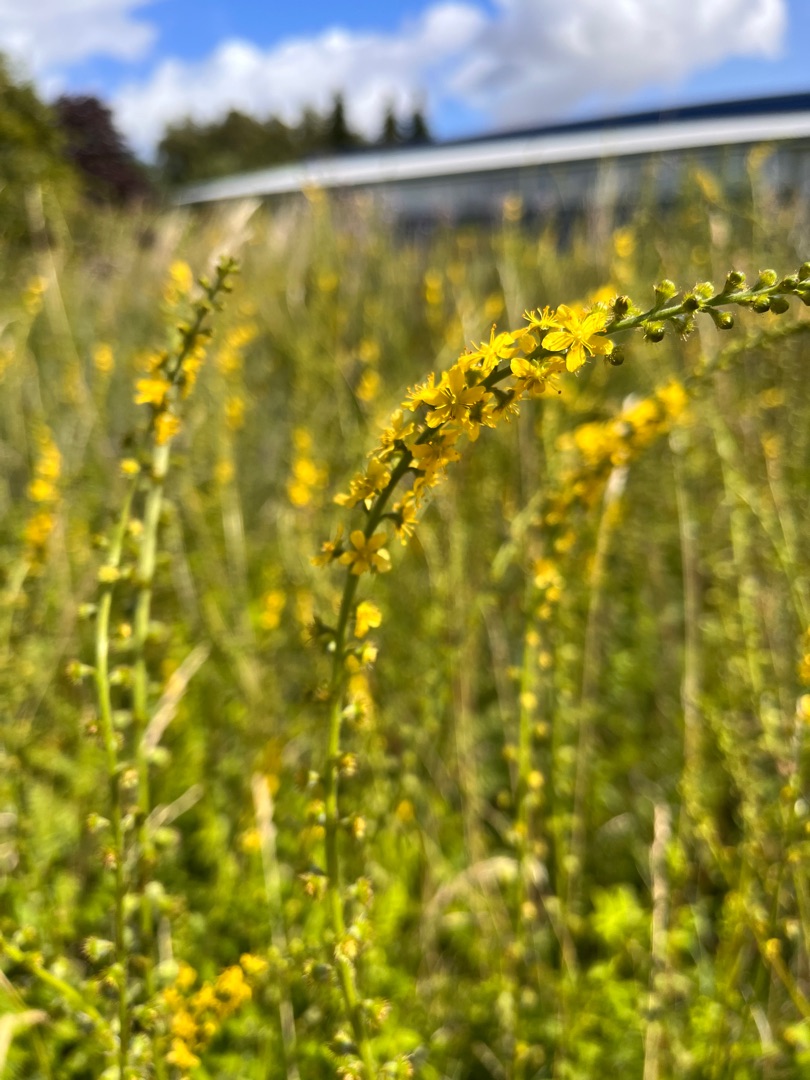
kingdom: Plantae
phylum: Tracheophyta
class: Magnoliopsida
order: Rosales
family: Rosaceae
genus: Agrimonia
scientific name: Agrimonia eupatoria
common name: Almindelig agermåne
